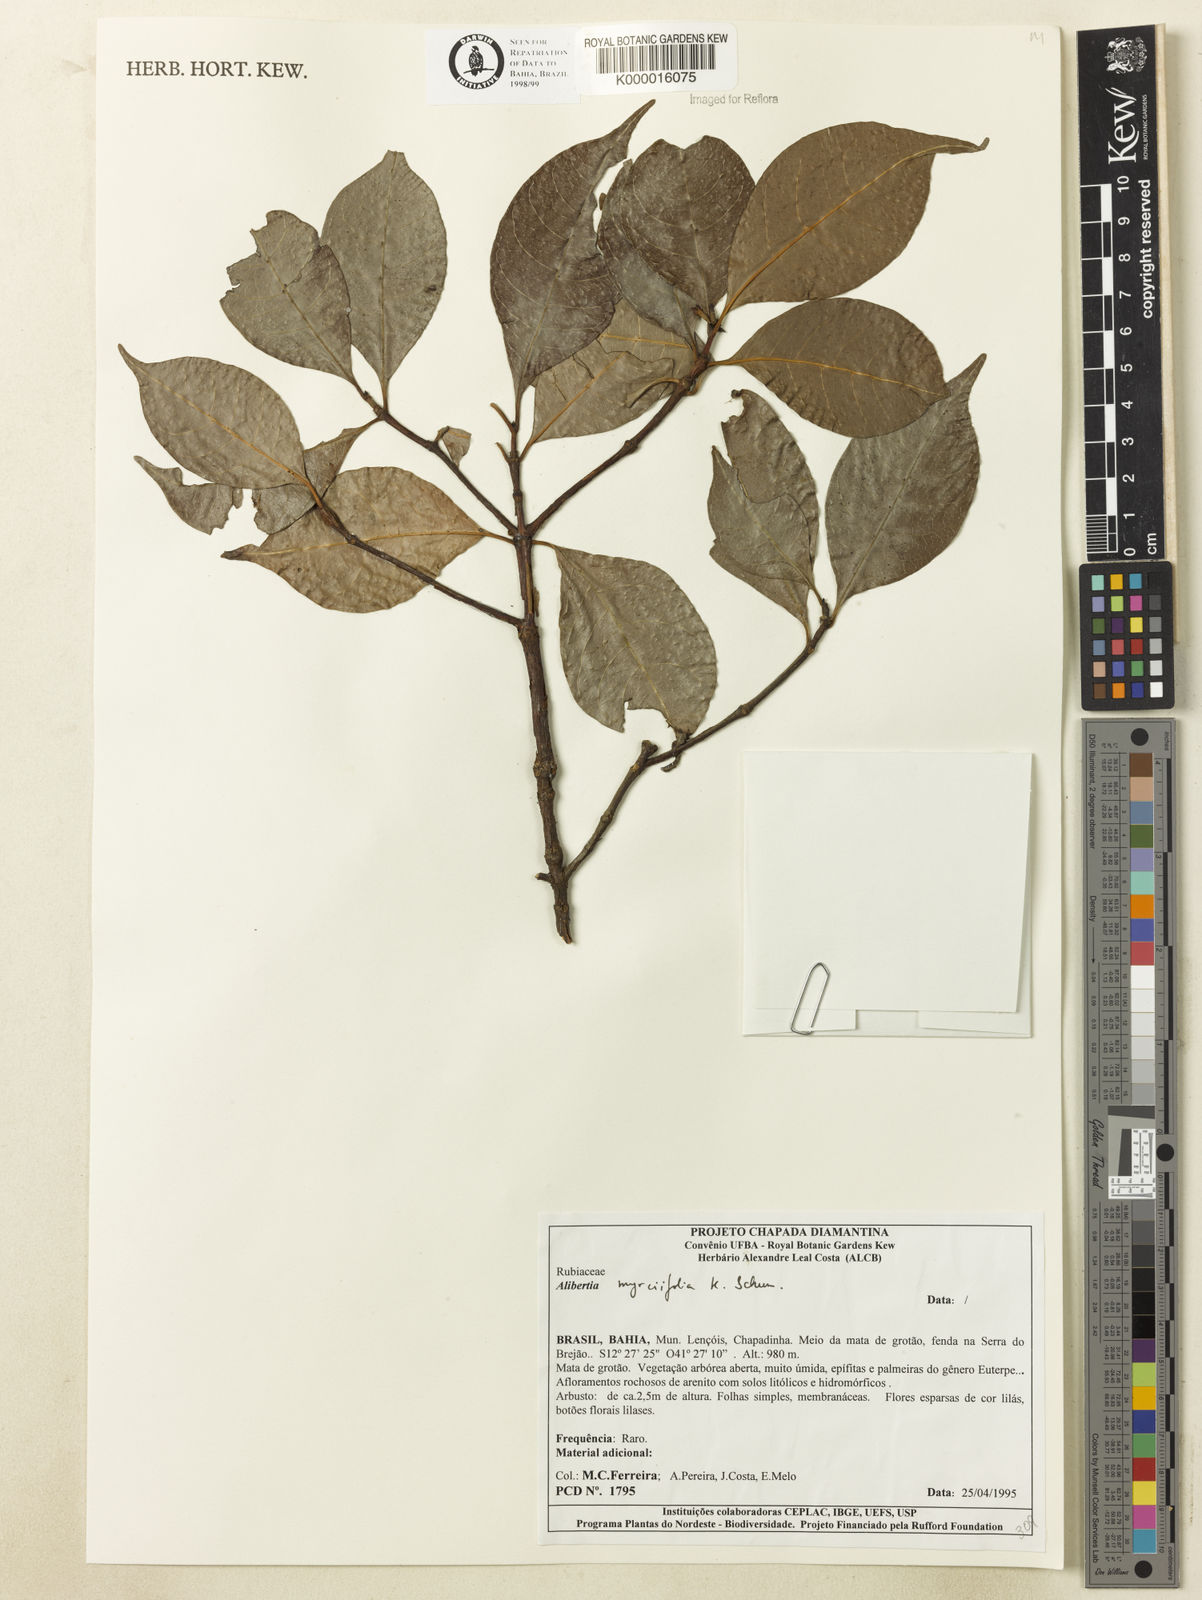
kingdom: Plantae
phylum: Tracheophyta
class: Magnoliopsida
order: Gentianales
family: Rubiaceae
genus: Cordiera
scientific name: Cordiera myrciifolia
